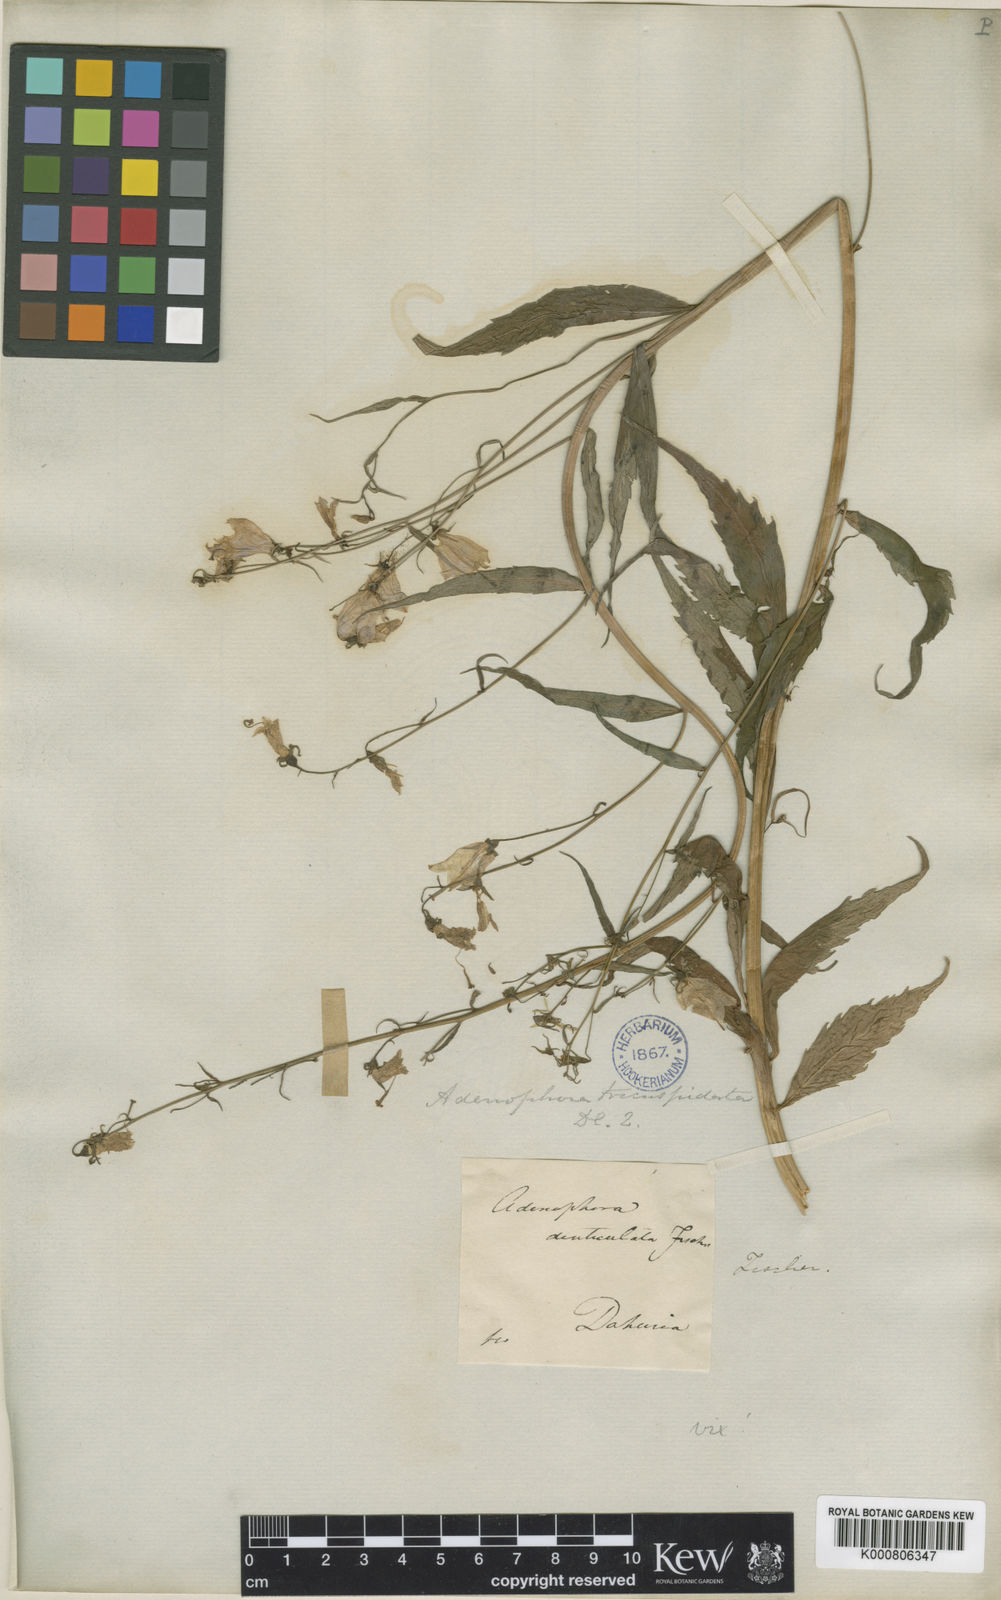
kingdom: Plantae
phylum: Tracheophyta
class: Magnoliopsida
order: Asterales
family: Campanulaceae
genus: Adenophora
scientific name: Adenophora tricuspidata
